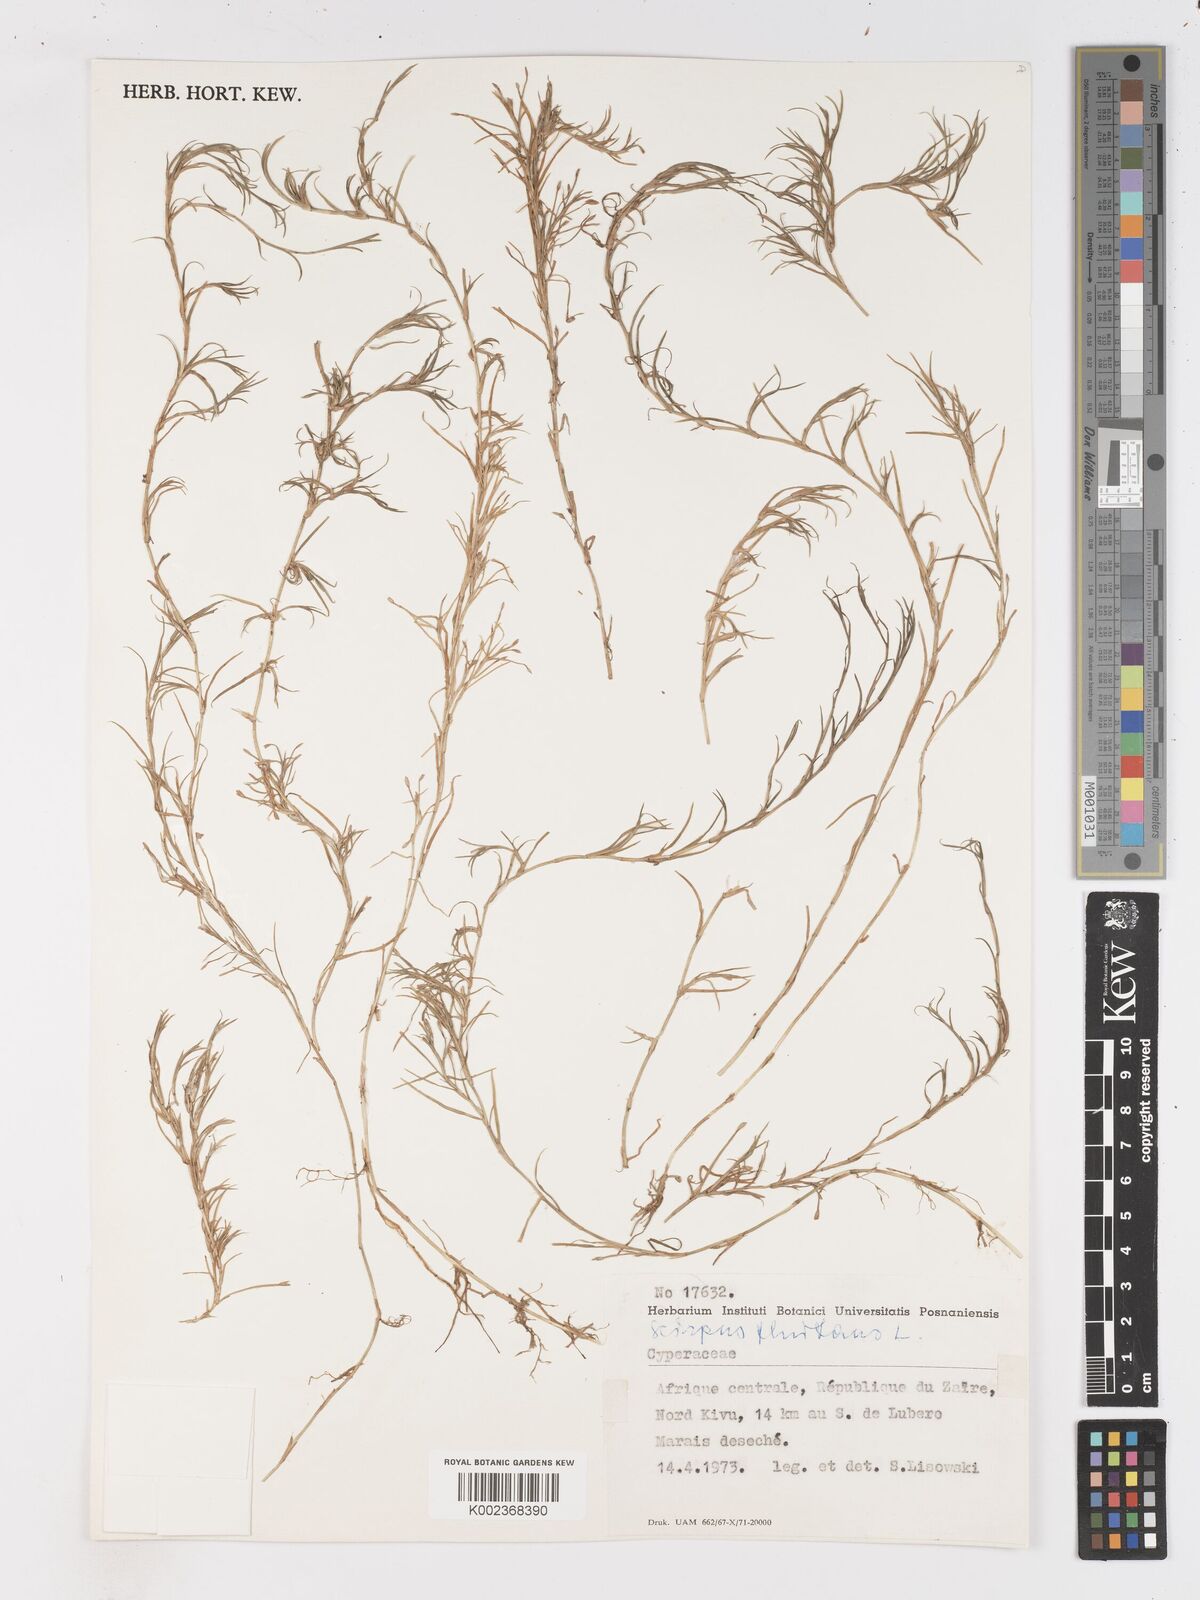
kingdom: Plantae
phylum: Tracheophyta
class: Liliopsida
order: Poales
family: Cyperaceae
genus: Isolepis
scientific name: Isolepis fluitans
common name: Floating club-rush
